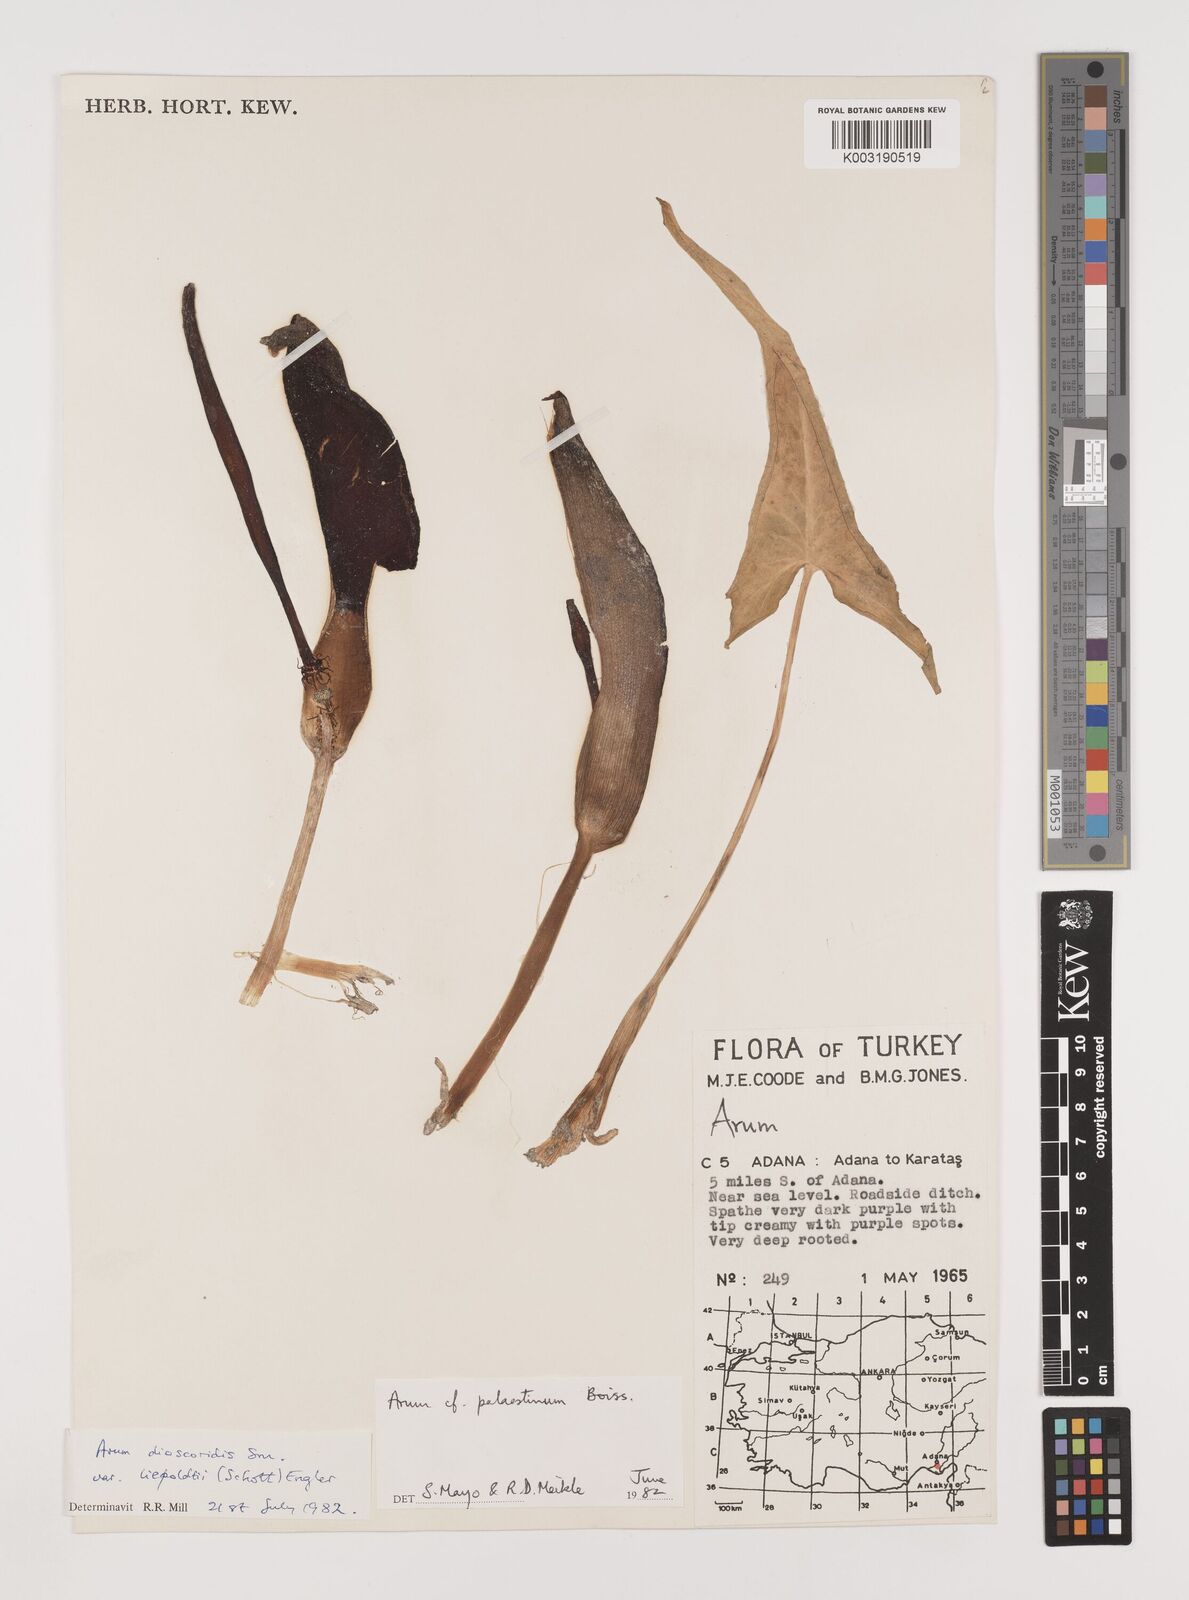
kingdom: Plantae
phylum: Tracheophyta
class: Liliopsida
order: Alismatales
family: Araceae
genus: Arum
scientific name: Arum dioscoridis
